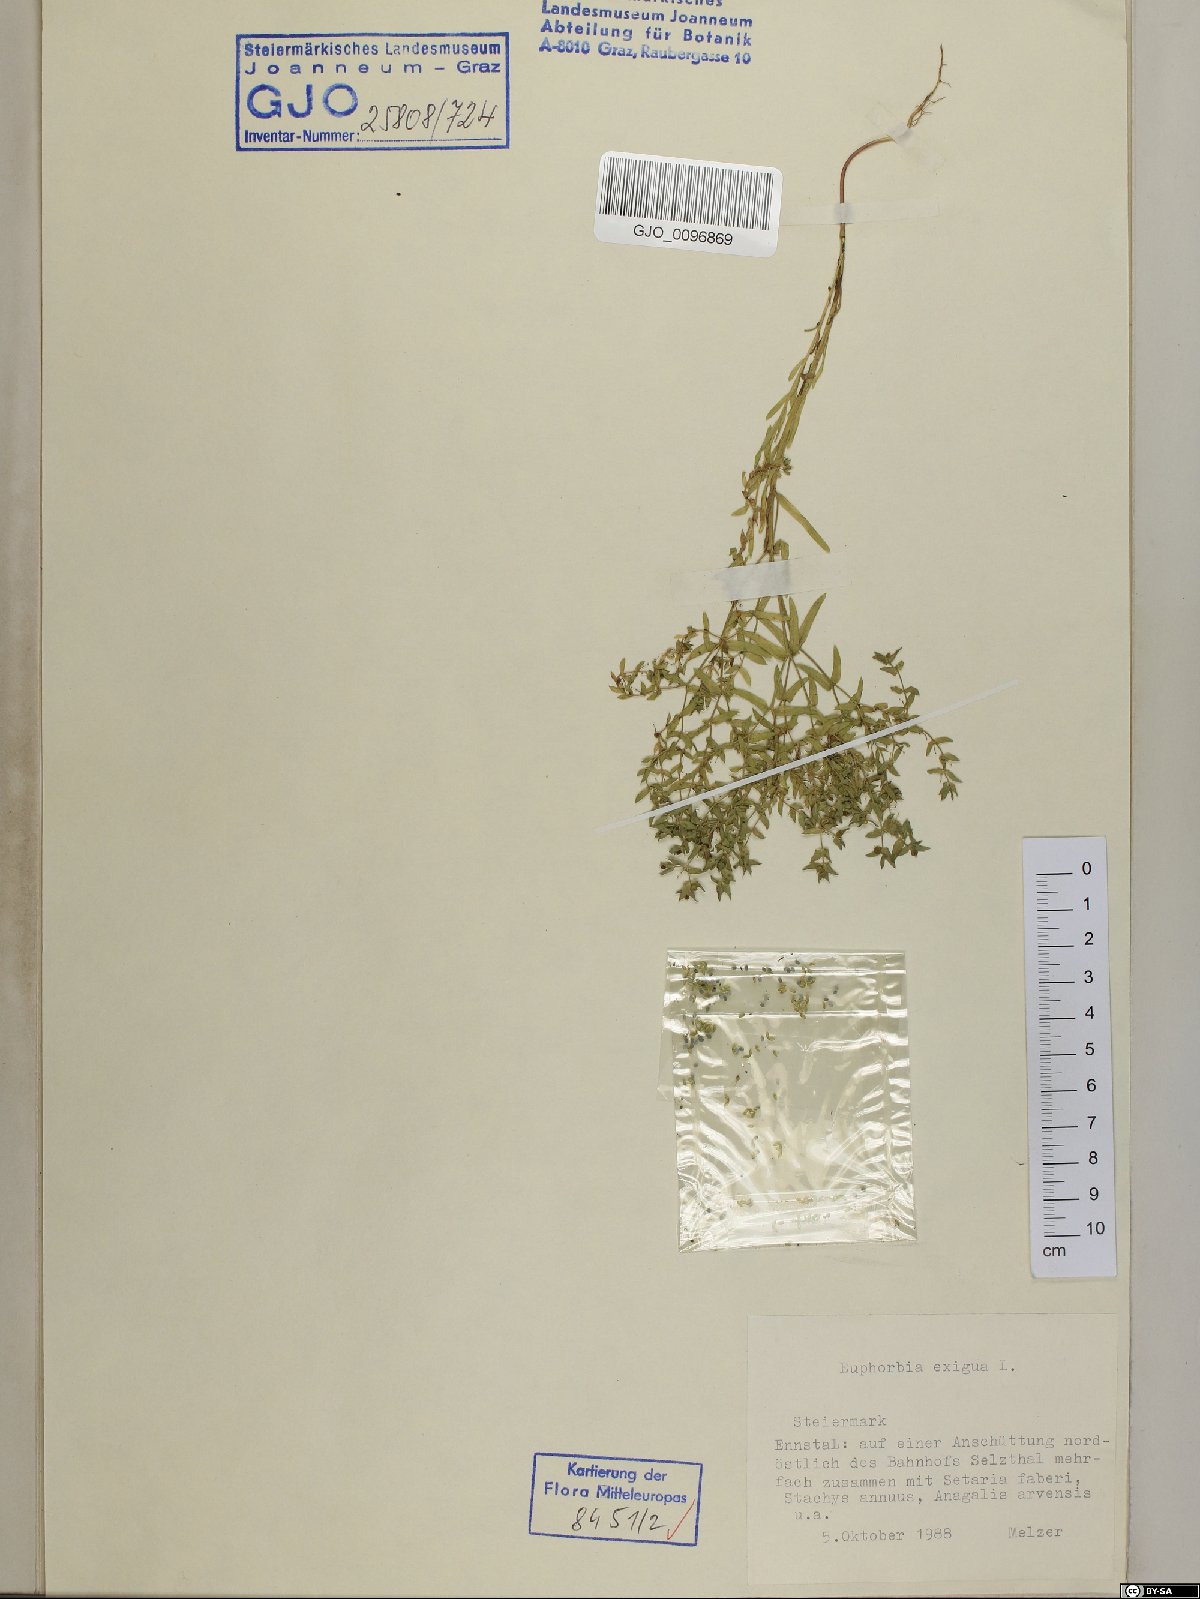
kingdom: Plantae
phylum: Tracheophyta
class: Magnoliopsida
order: Malpighiales
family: Euphorbiaceae
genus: Euphorbia
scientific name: Euphorbia exigua
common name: Dwarf spurge
